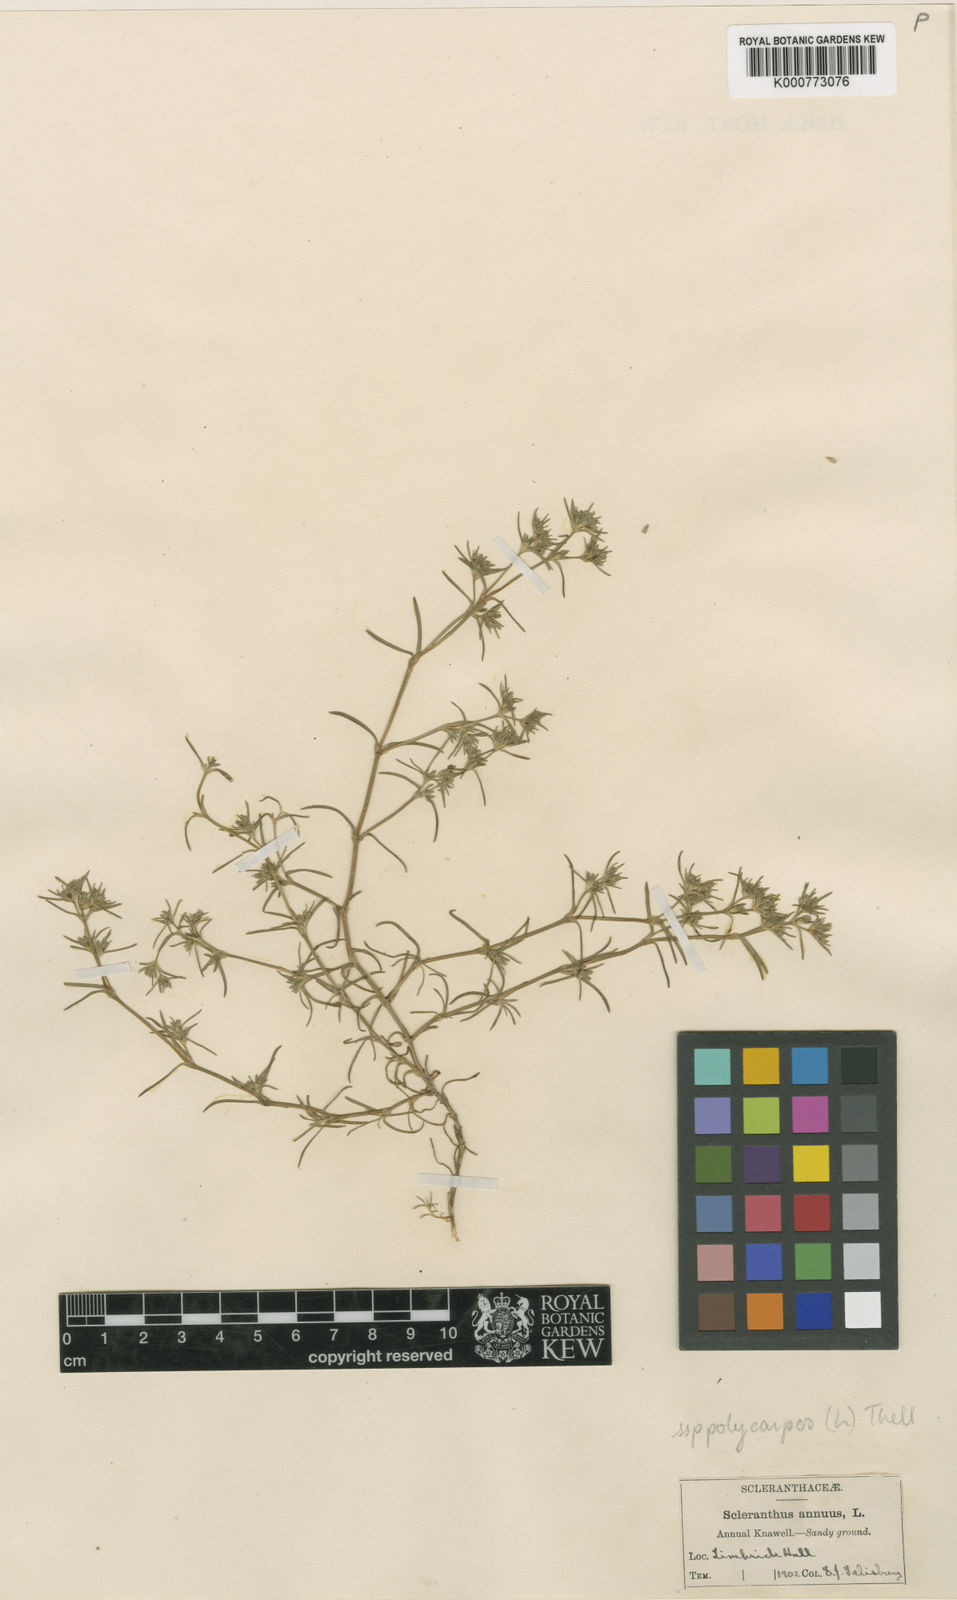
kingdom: Plantae
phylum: Tracheophyta
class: Magnoliopsida
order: Caryophyllales
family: Caryophyllaceae
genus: Scleranthus
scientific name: Scleranthus annuus
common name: Annual knawel
